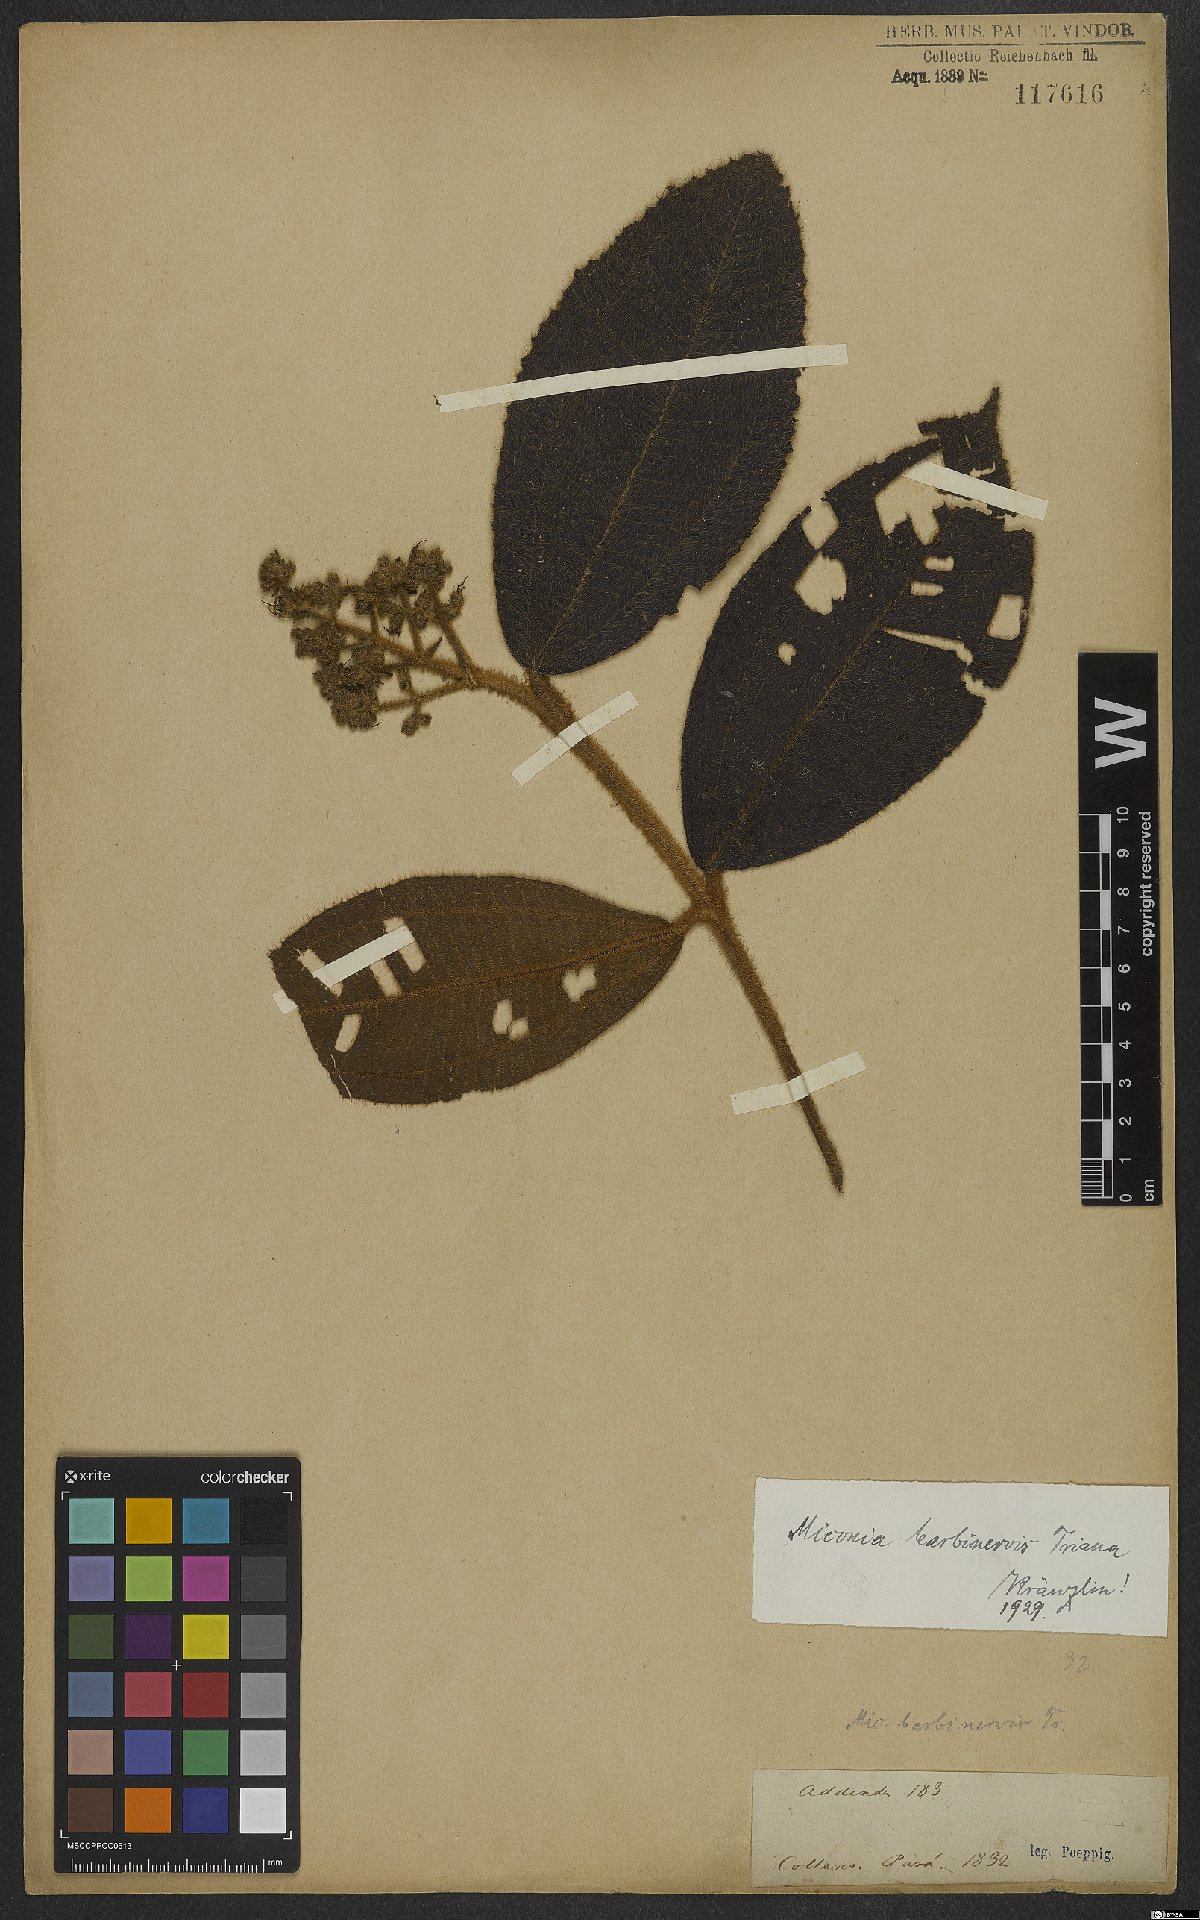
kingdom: Plantae
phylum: Tracheophyta
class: Magnoliopsida
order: Myrtales
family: Melastomataceae
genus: Miconia
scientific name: Miconia barbinervis
